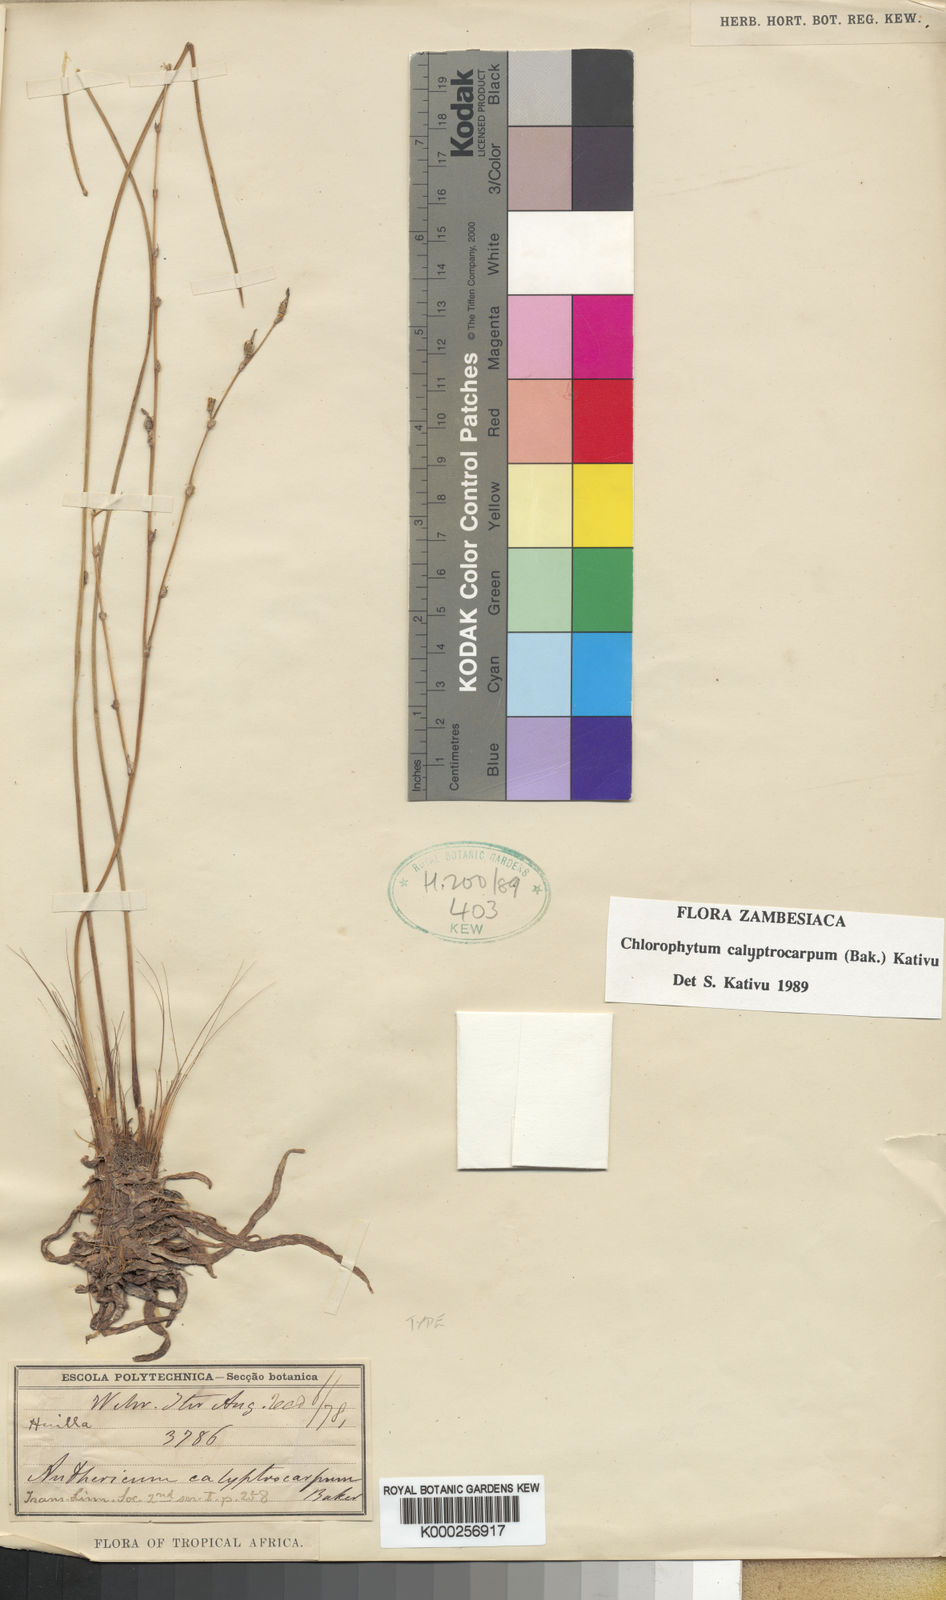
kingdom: Plantae
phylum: Tracheophyta
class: Liliopsida
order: Asparagales
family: Asparagaceae
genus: Chlorophytum
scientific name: Chlorophytum calyptrocarpum
